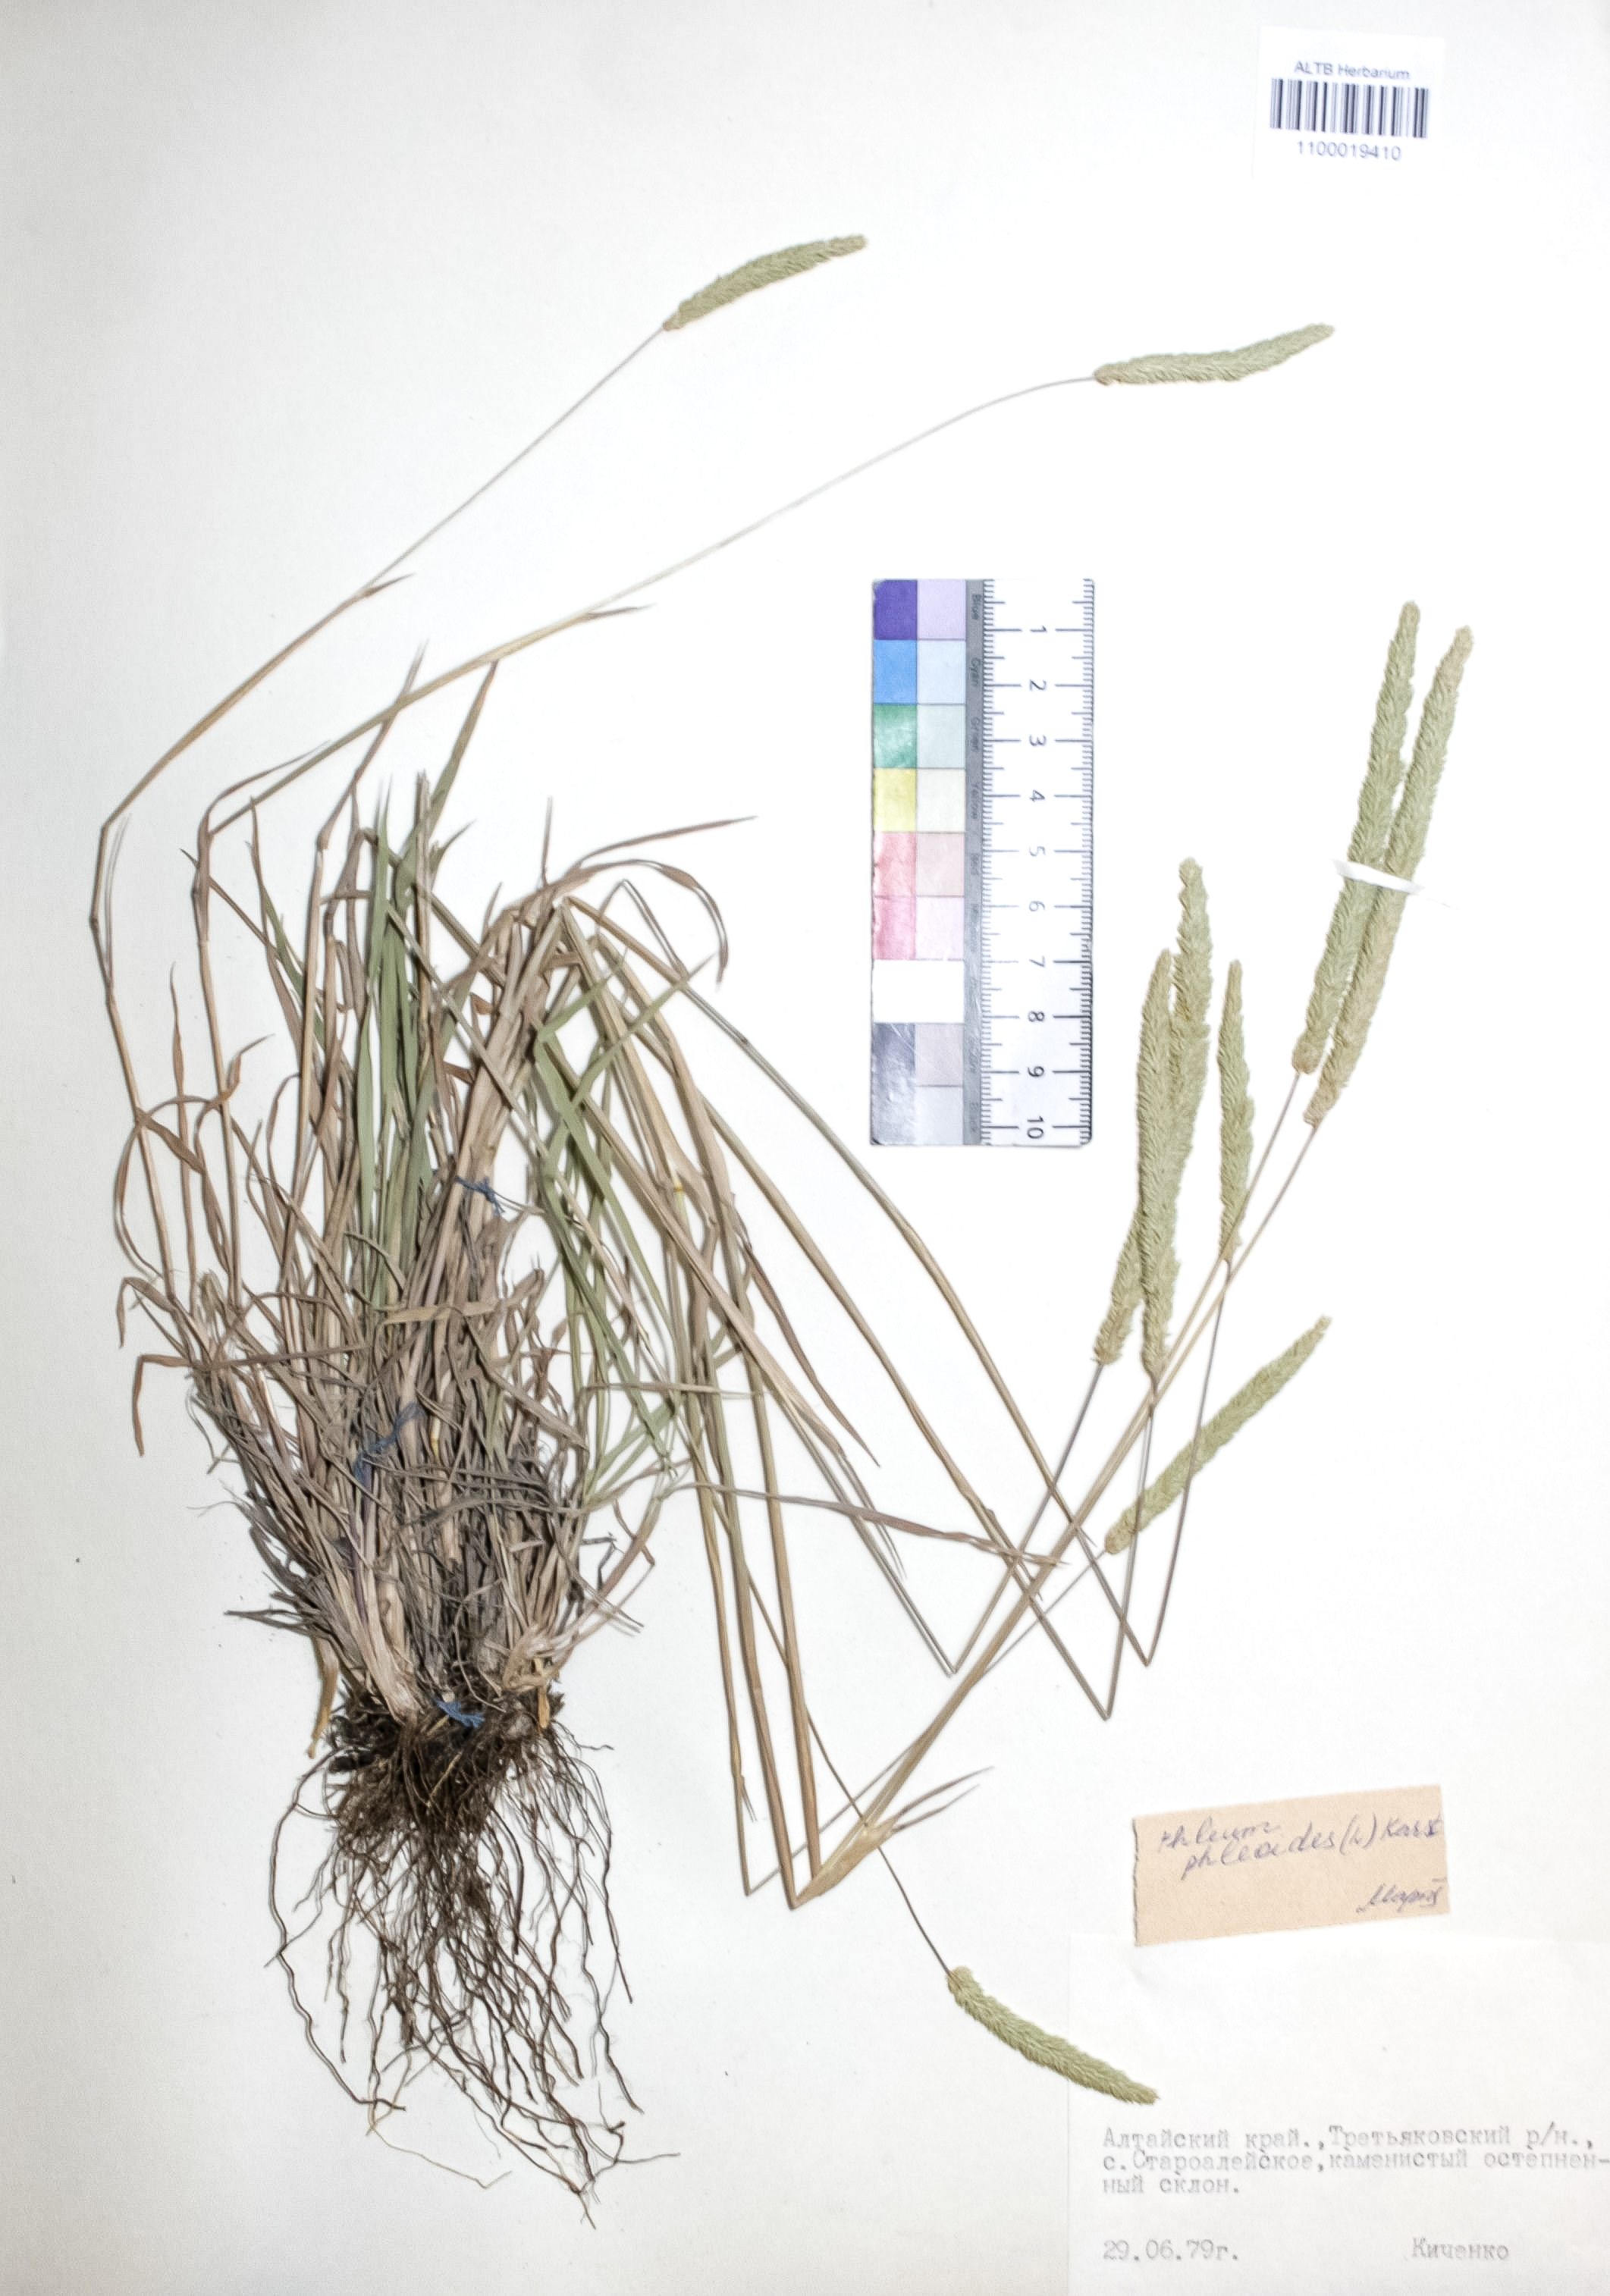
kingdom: Plantae
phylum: Tracheophyta
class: Liliopsida
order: Poales
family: Poaceae
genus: Phleum
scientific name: Phleum phleoides
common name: Purple-stem cat's-tail
